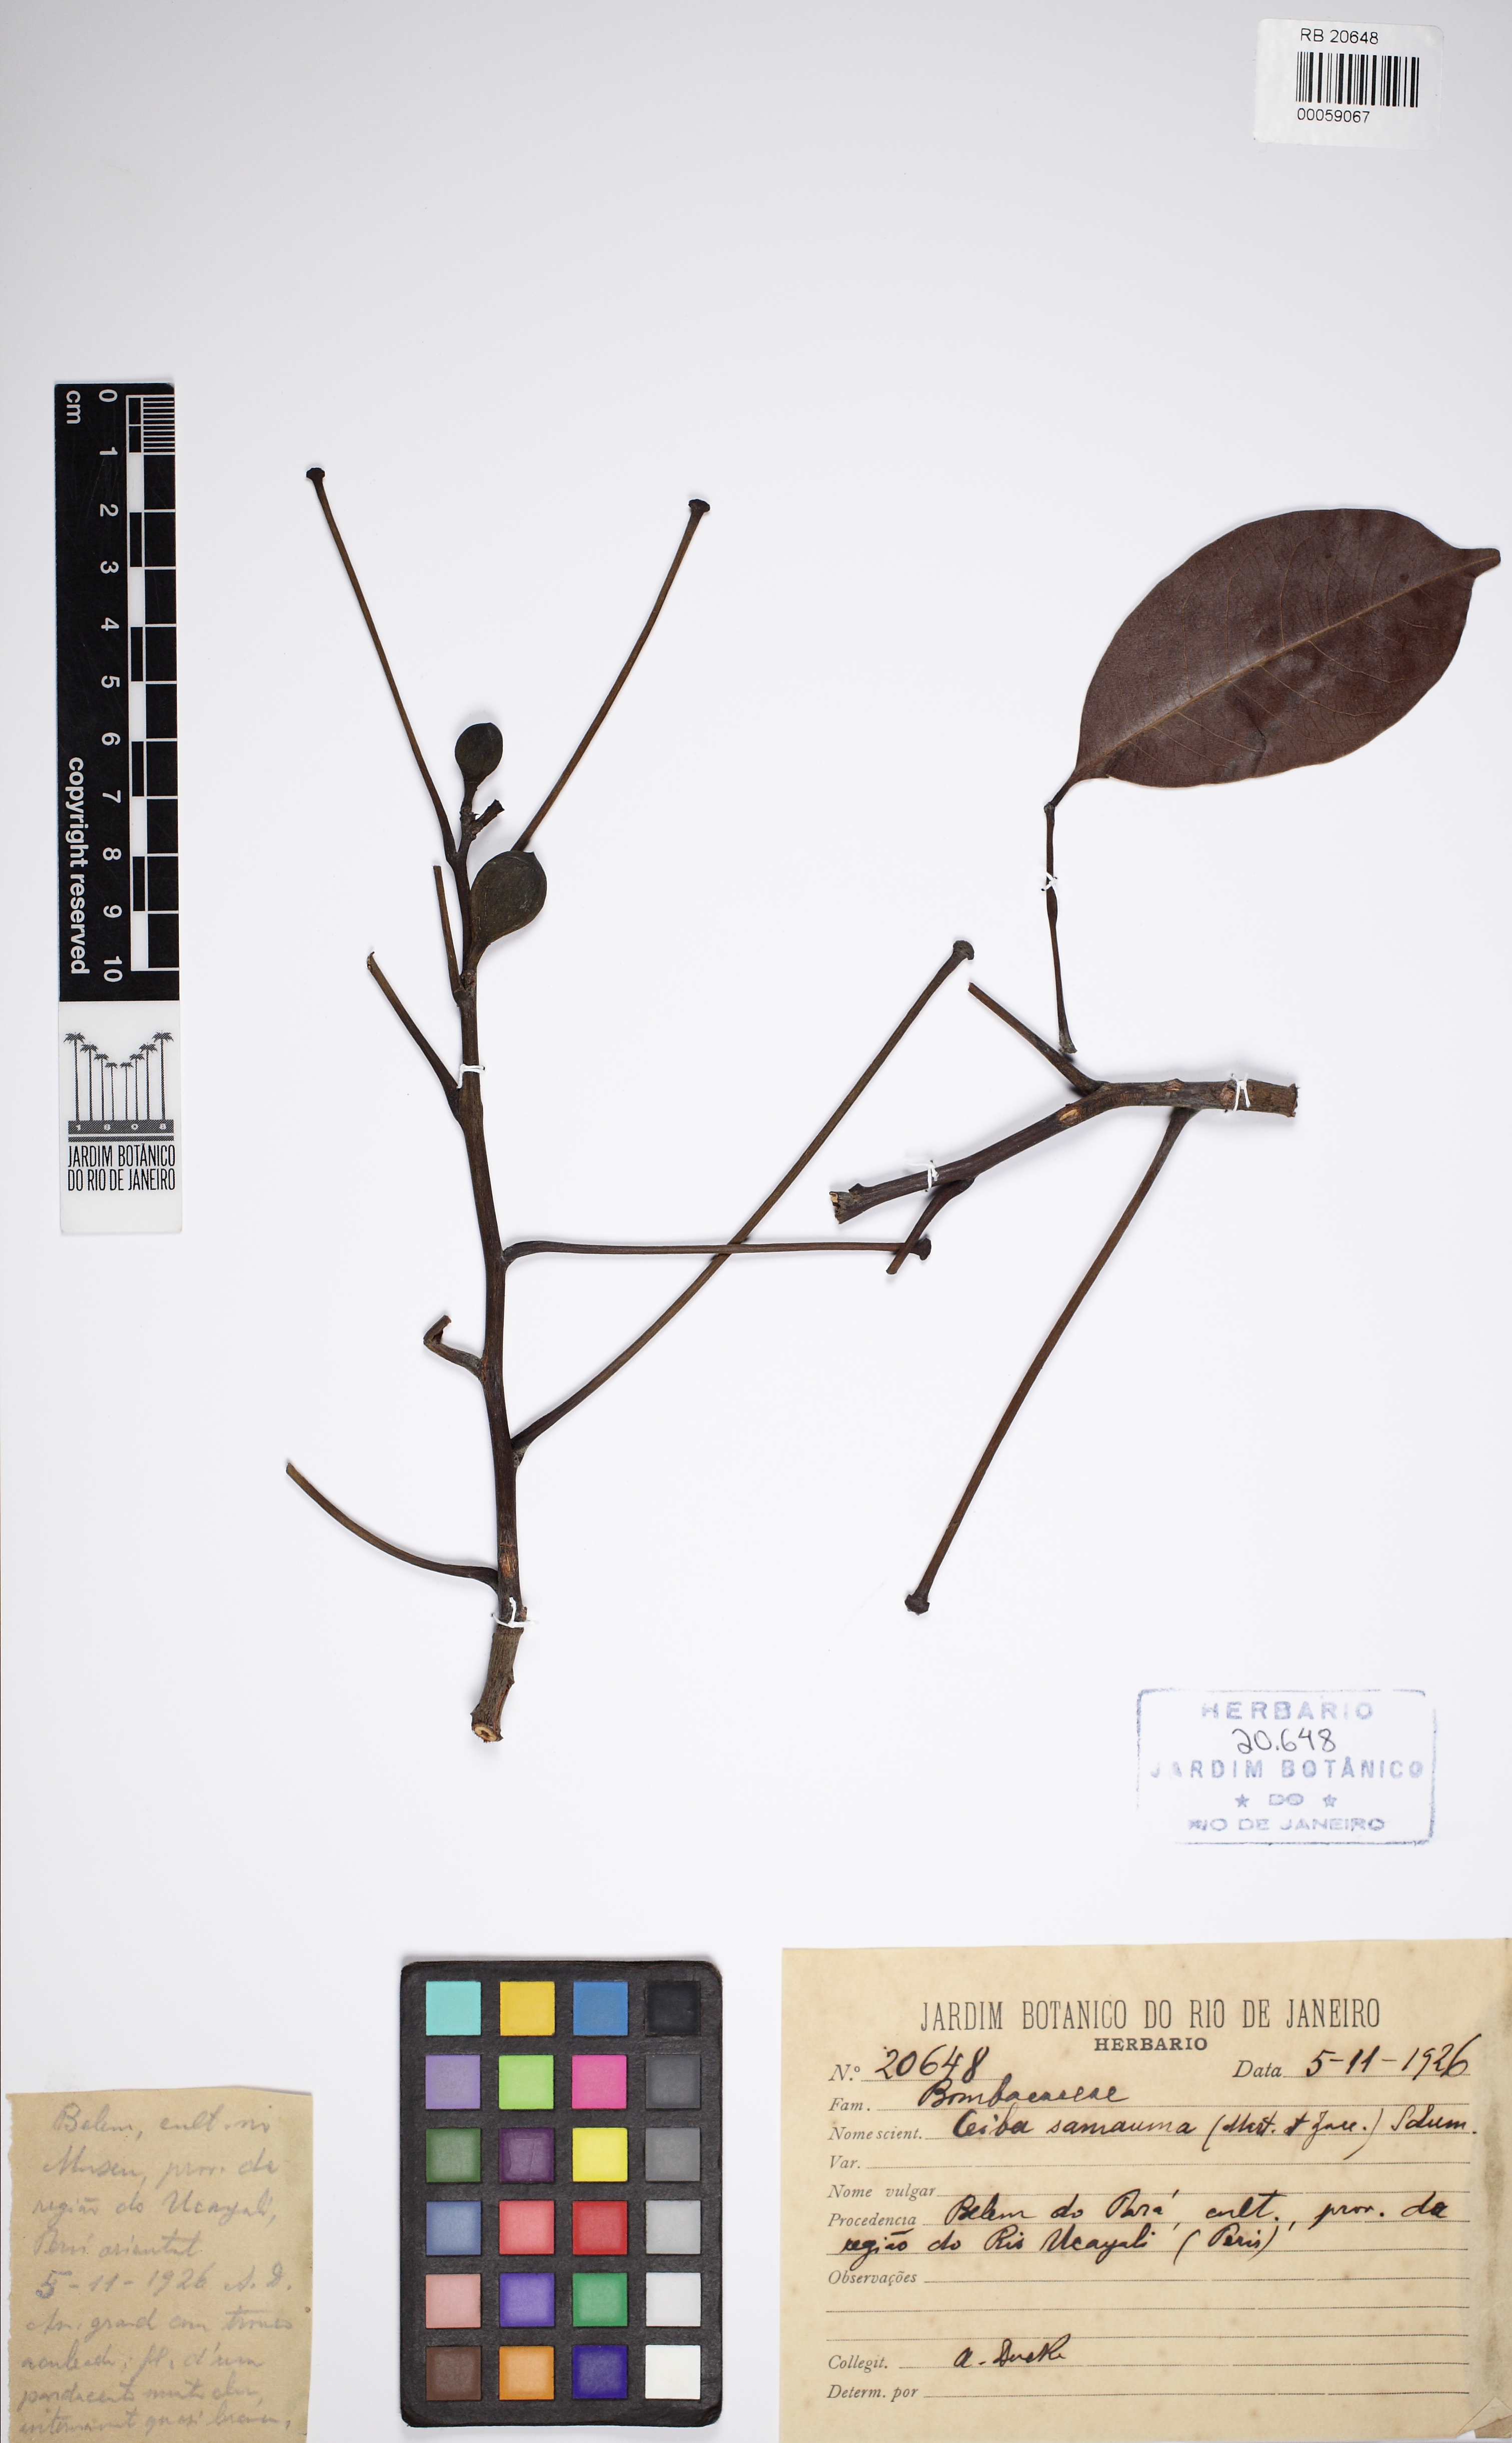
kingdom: Plantae
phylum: Tracheophyta
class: Magnoliopsida
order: Malvales
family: Malvaceae
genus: Ceiba
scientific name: Ceiba samauma
